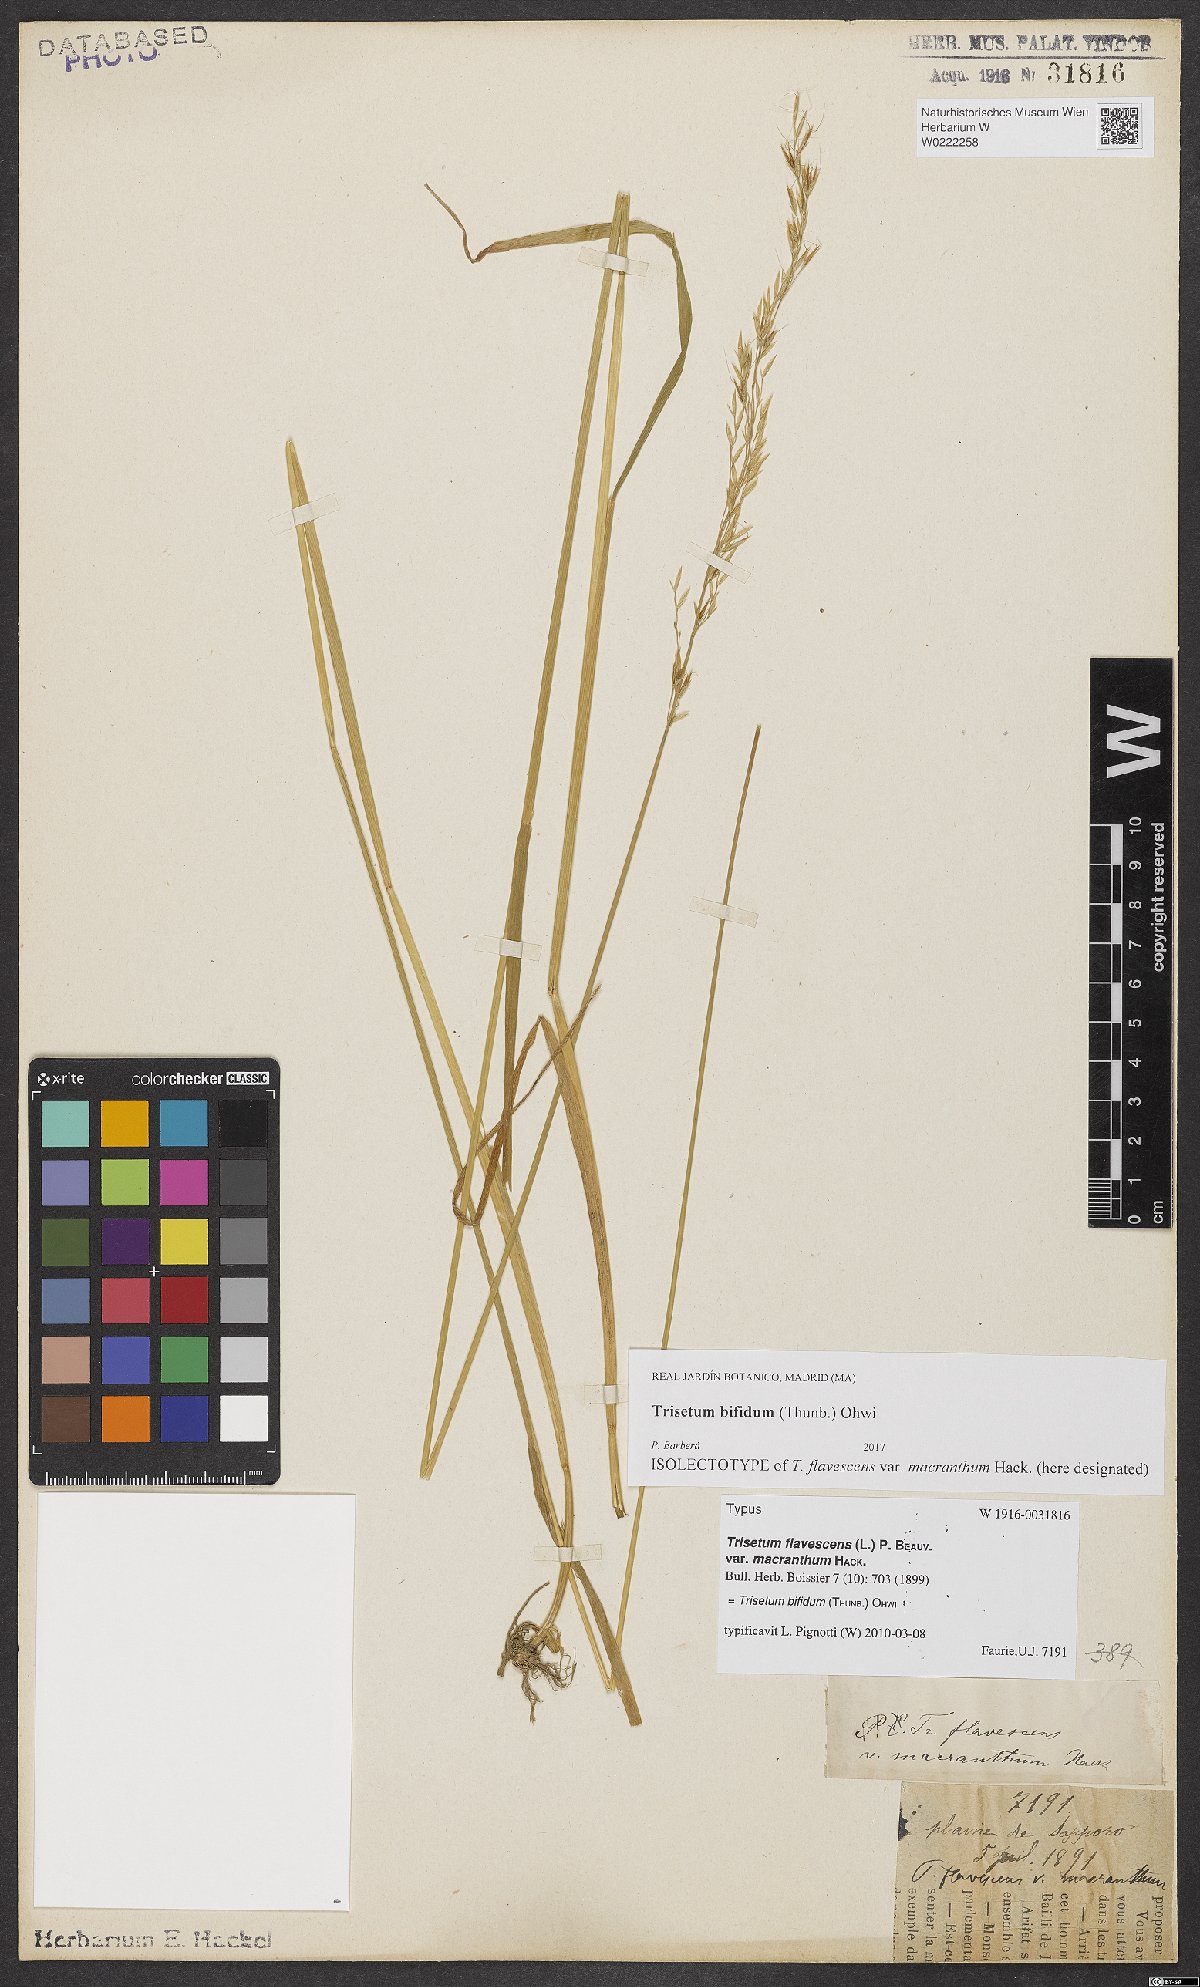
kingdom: Plantae
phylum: Tracheophyta
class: Liliopsida
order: Poales
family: Poaceae
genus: Sibirotrisetum
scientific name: Sibirotrisetum bifidum
